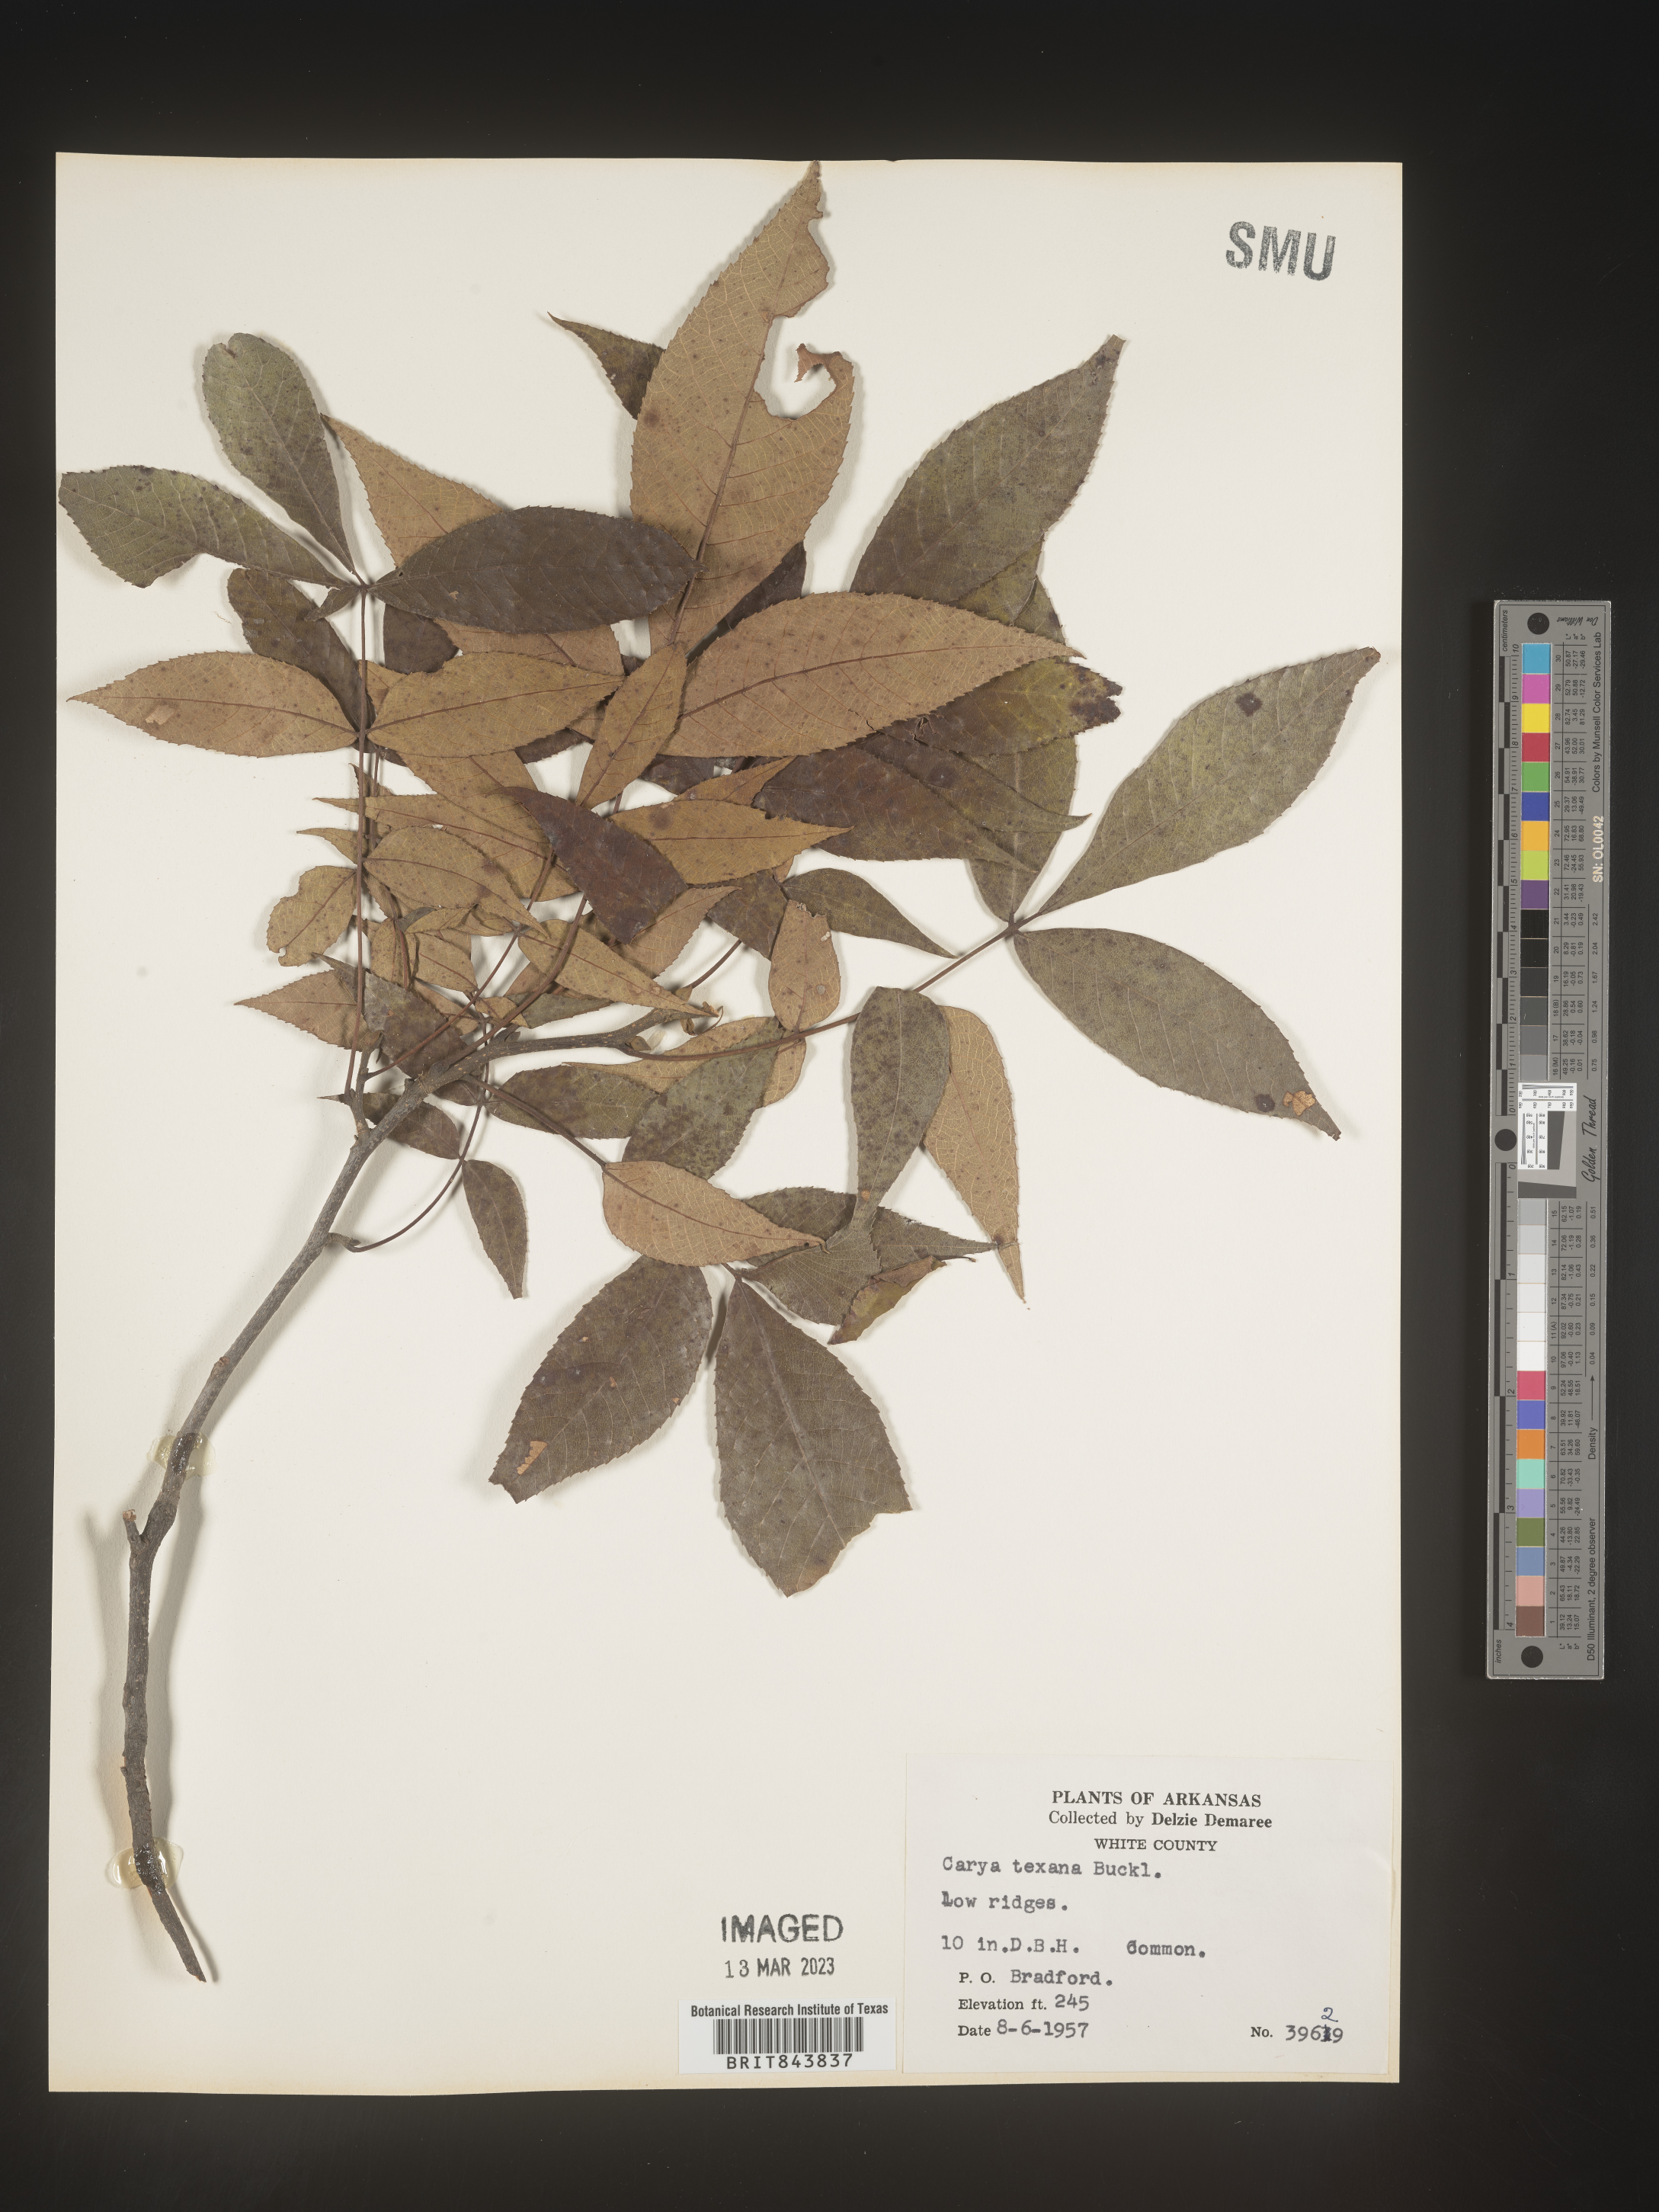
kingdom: Plantae
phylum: Tracheophyta
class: Magnoliopsida
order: Fagales
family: Juglandaceae
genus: Carya
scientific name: Carya texana
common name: Black hickory
